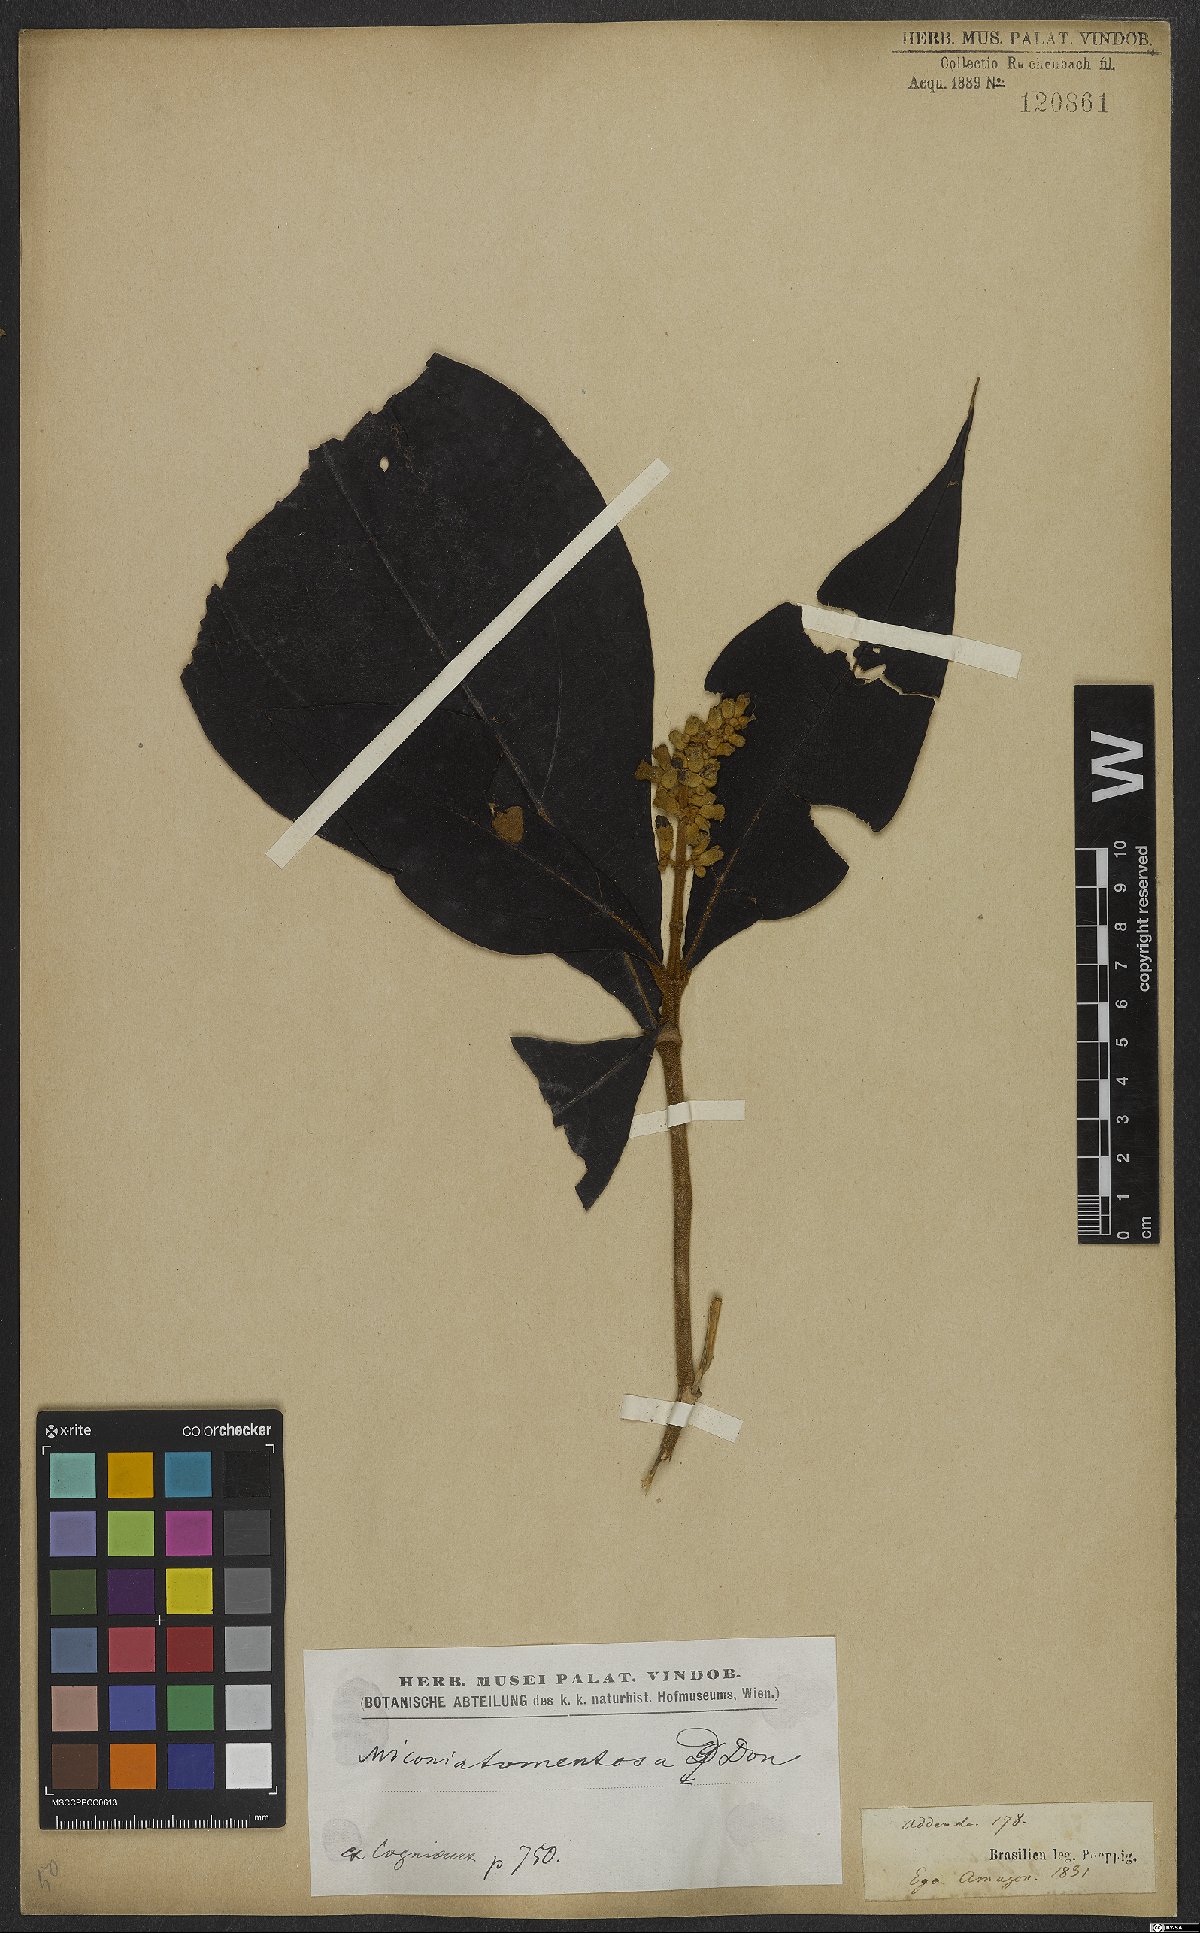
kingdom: Plantae
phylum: Tracheophyta
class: Magnoliopsida
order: Myrtales
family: Melastomataceae
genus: Miconia
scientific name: Miconia tomentosa
